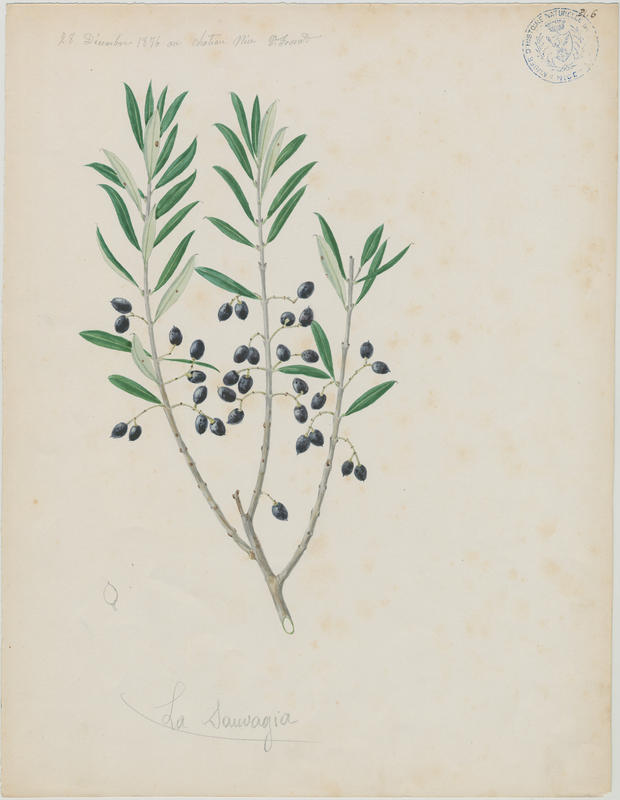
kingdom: Plantae
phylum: Tracheophyta
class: Magnoliopsida
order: Lamiales
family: Oleaceae
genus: Olea
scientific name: Olea europaea
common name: Olive
